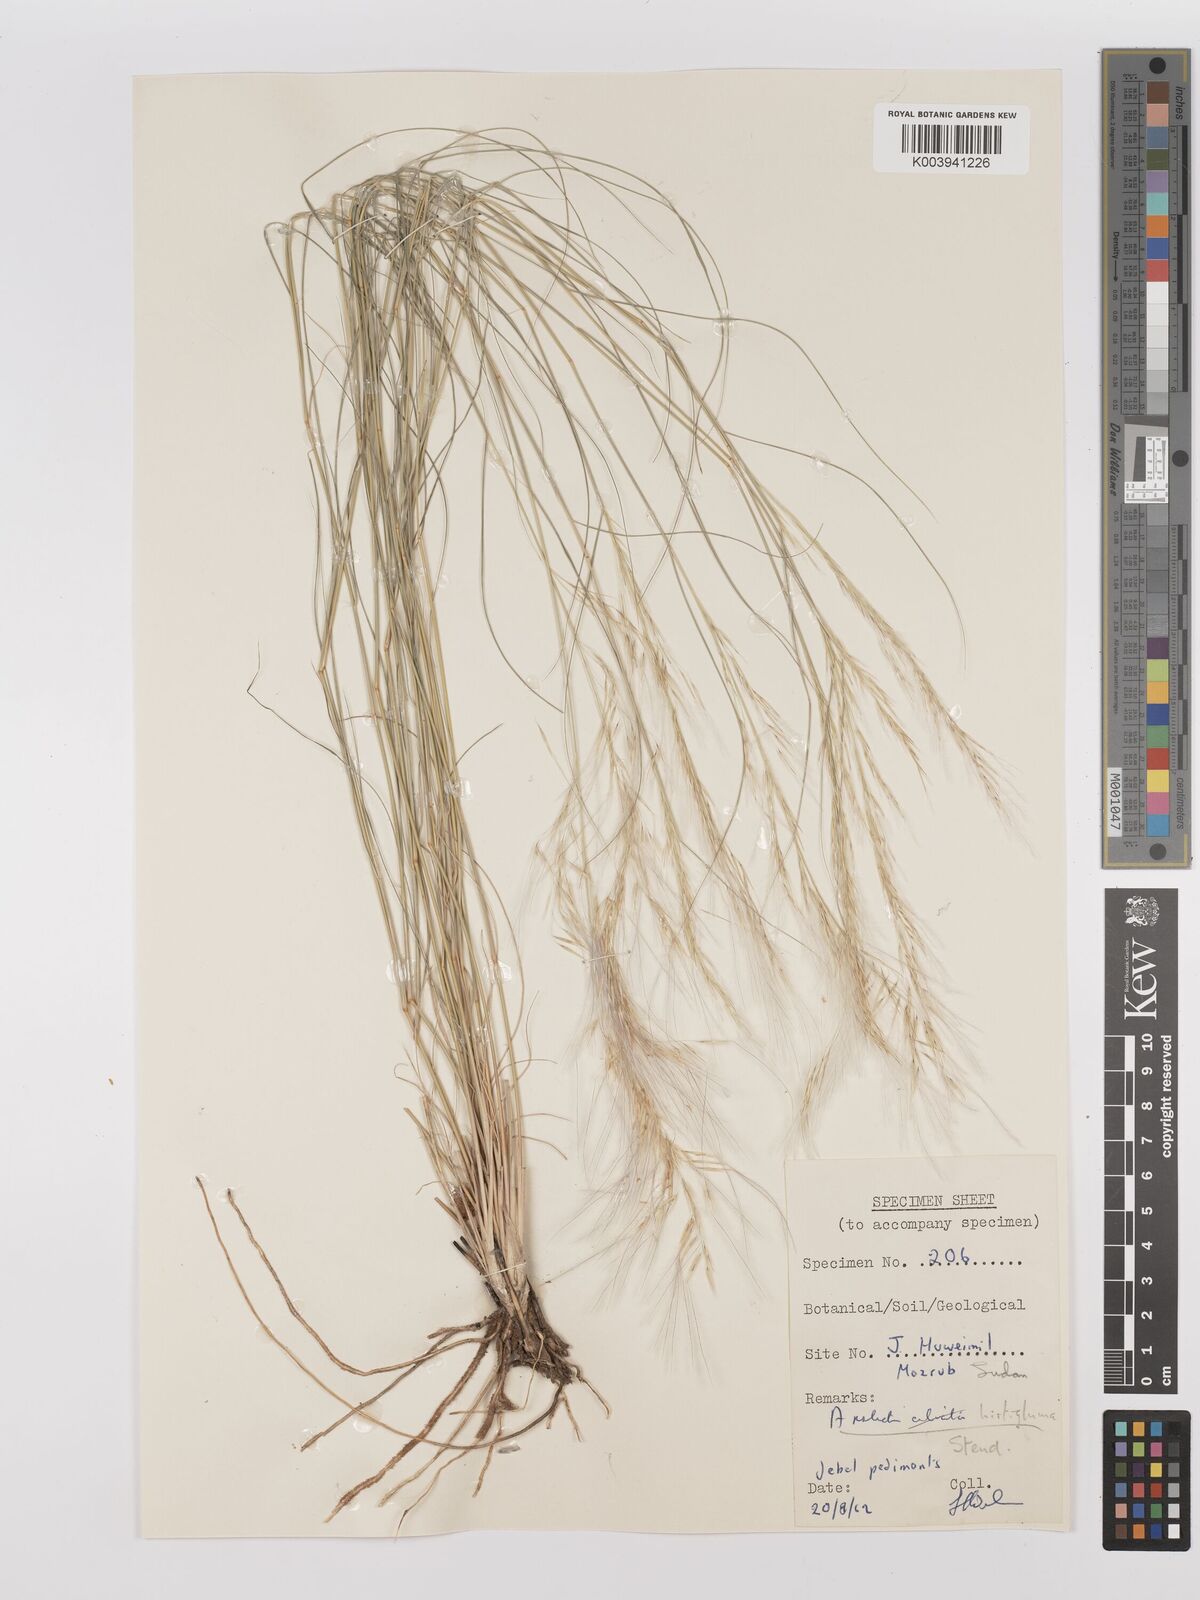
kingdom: Plantae
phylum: Tracheophyta
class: Liliopsida
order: Poales
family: Poaceae
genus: Stipagrostis
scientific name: Stipagrostis uniplumis
